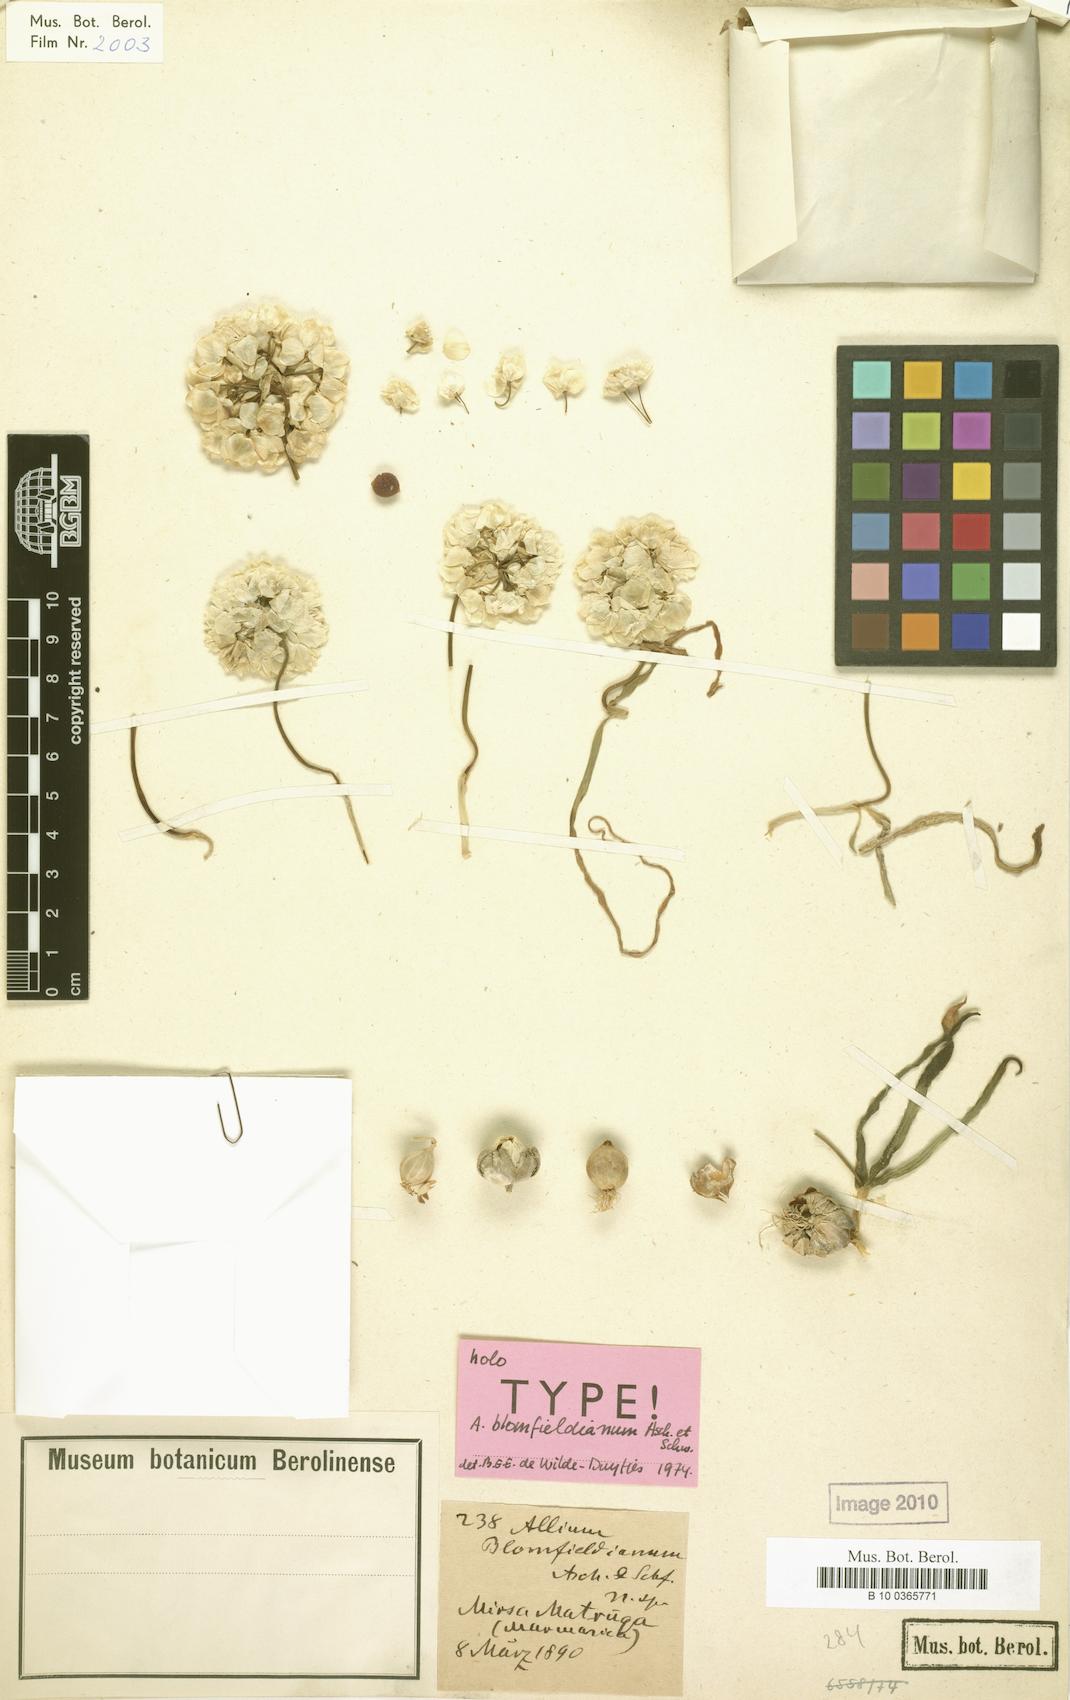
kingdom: Plantae
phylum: Tracheophyta
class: Liliopsida
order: Asparagales
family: Amaryllidaceae
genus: Allium
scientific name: Allium blomfieldianum
